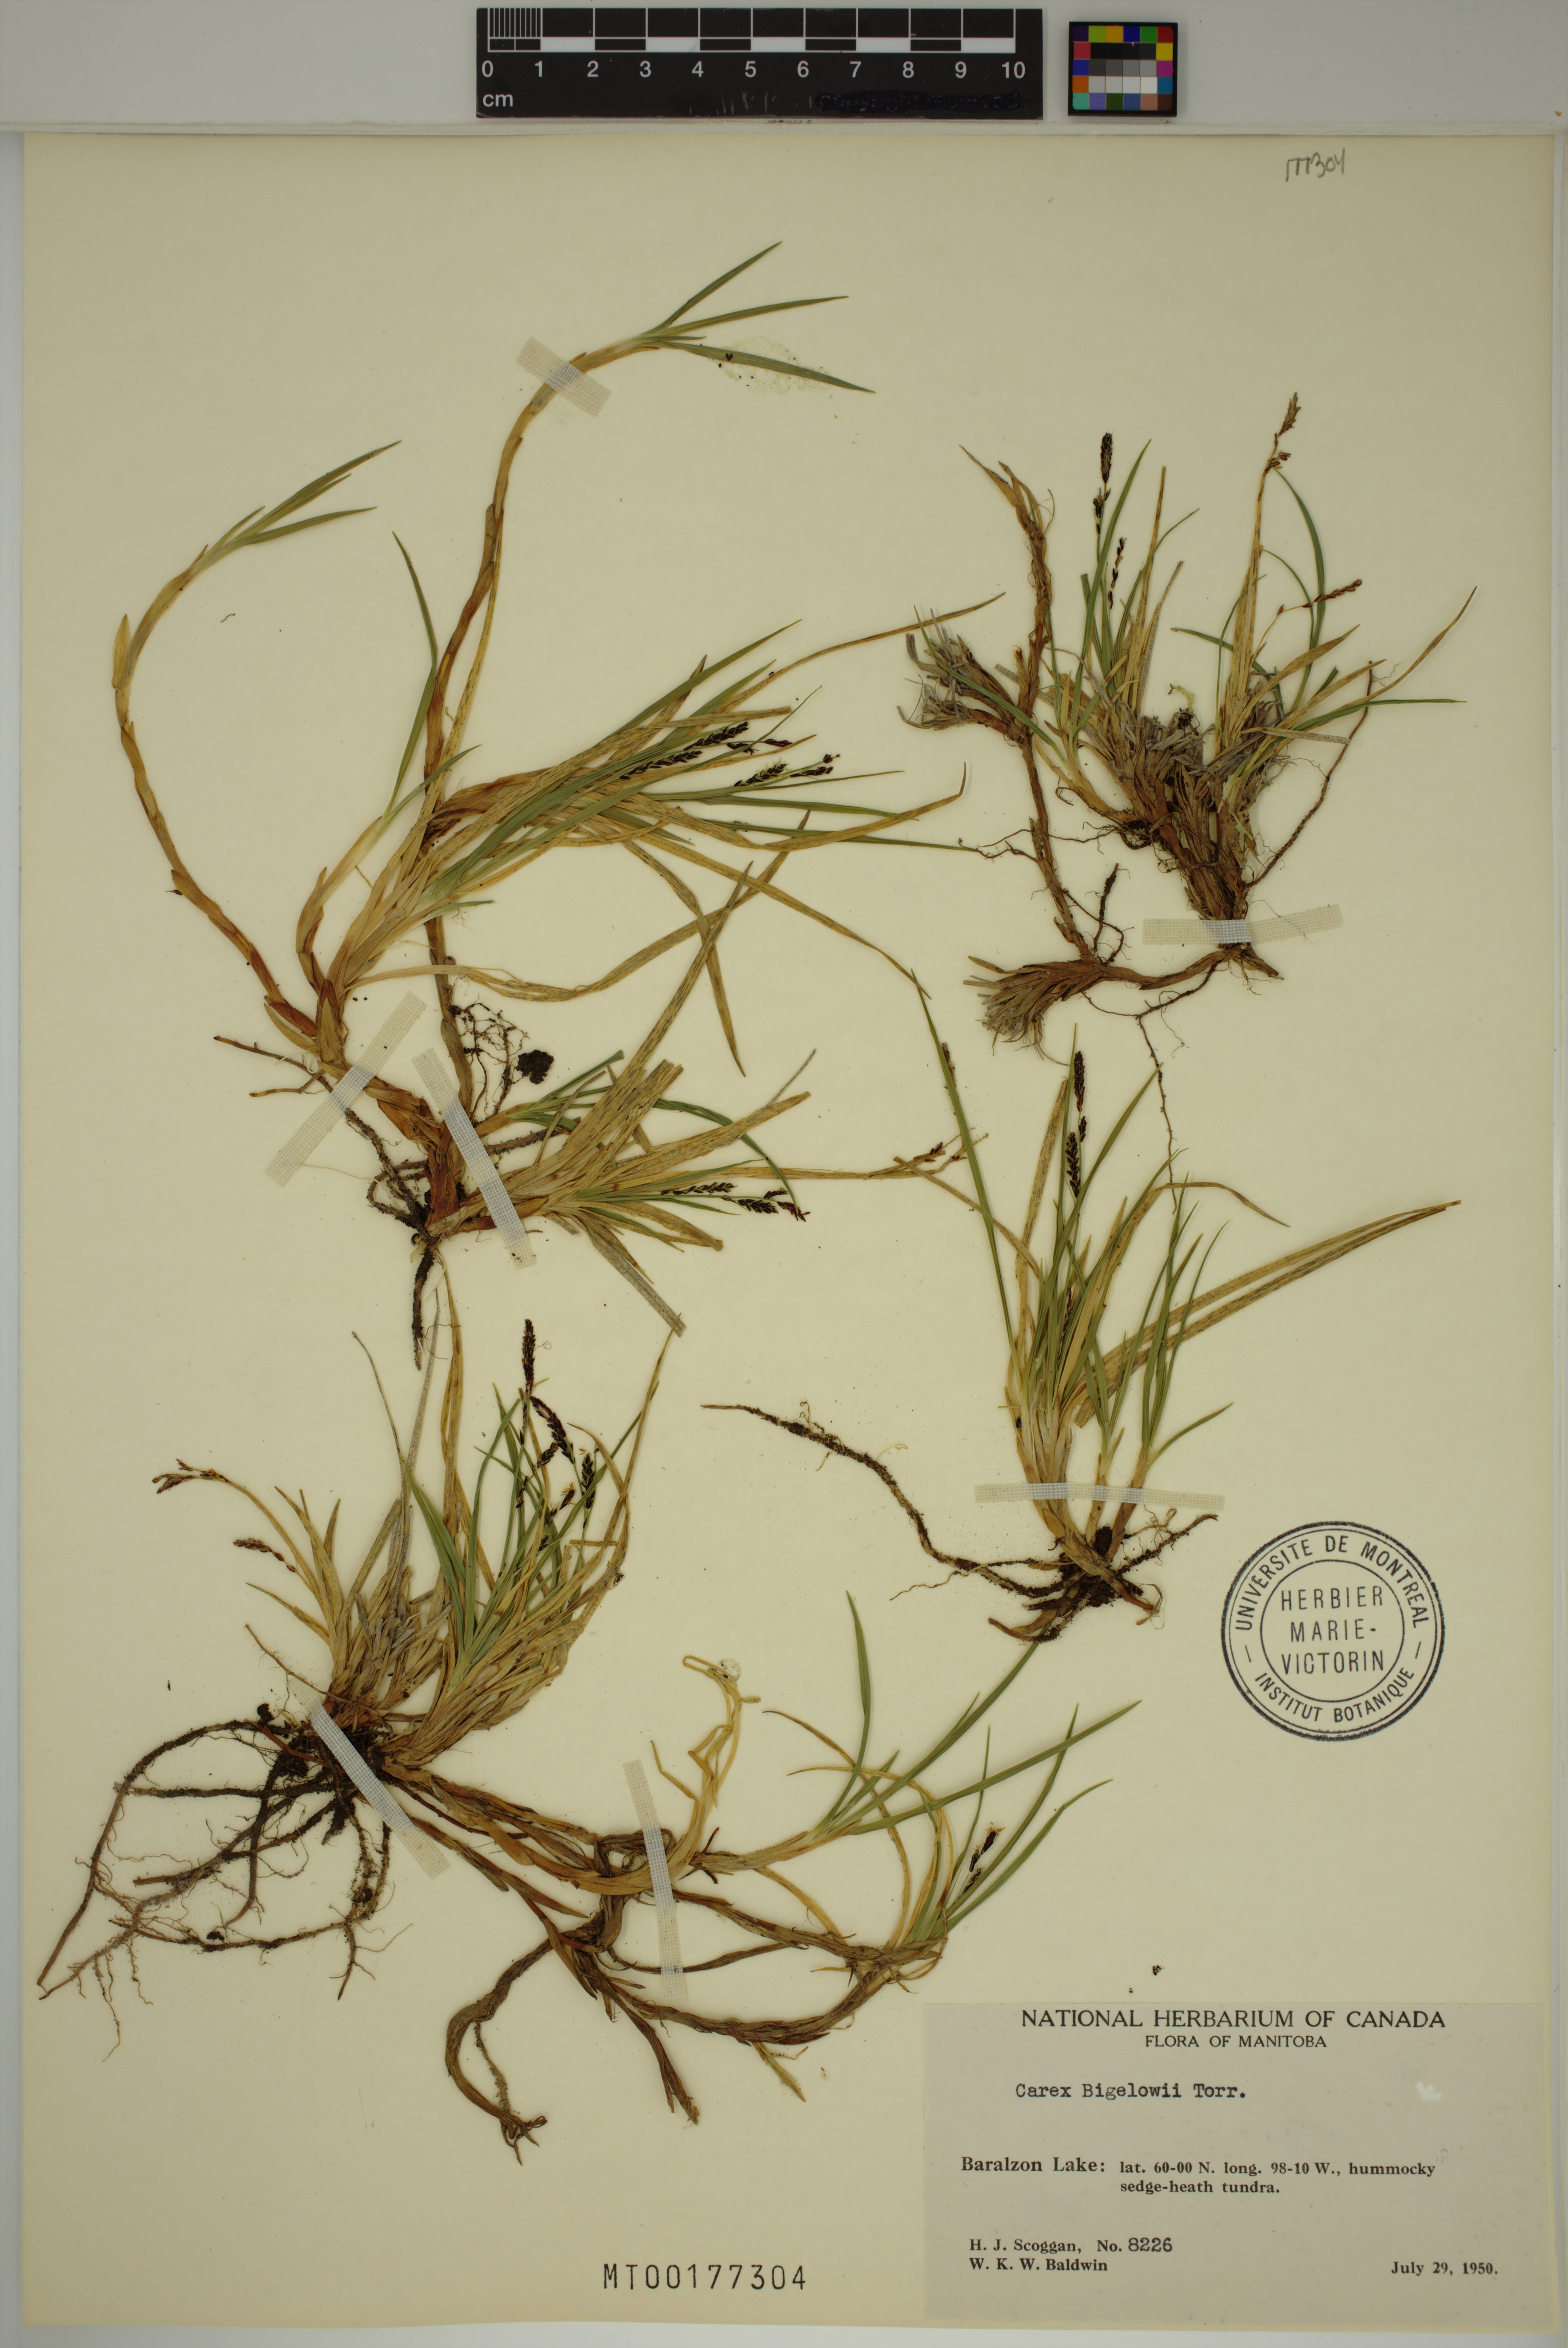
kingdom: Plantae
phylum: Tracheophyta
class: Liliopsida
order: Poales
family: Cyperaceae
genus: Carex
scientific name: Carex bigelowii
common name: Stiff sedge
